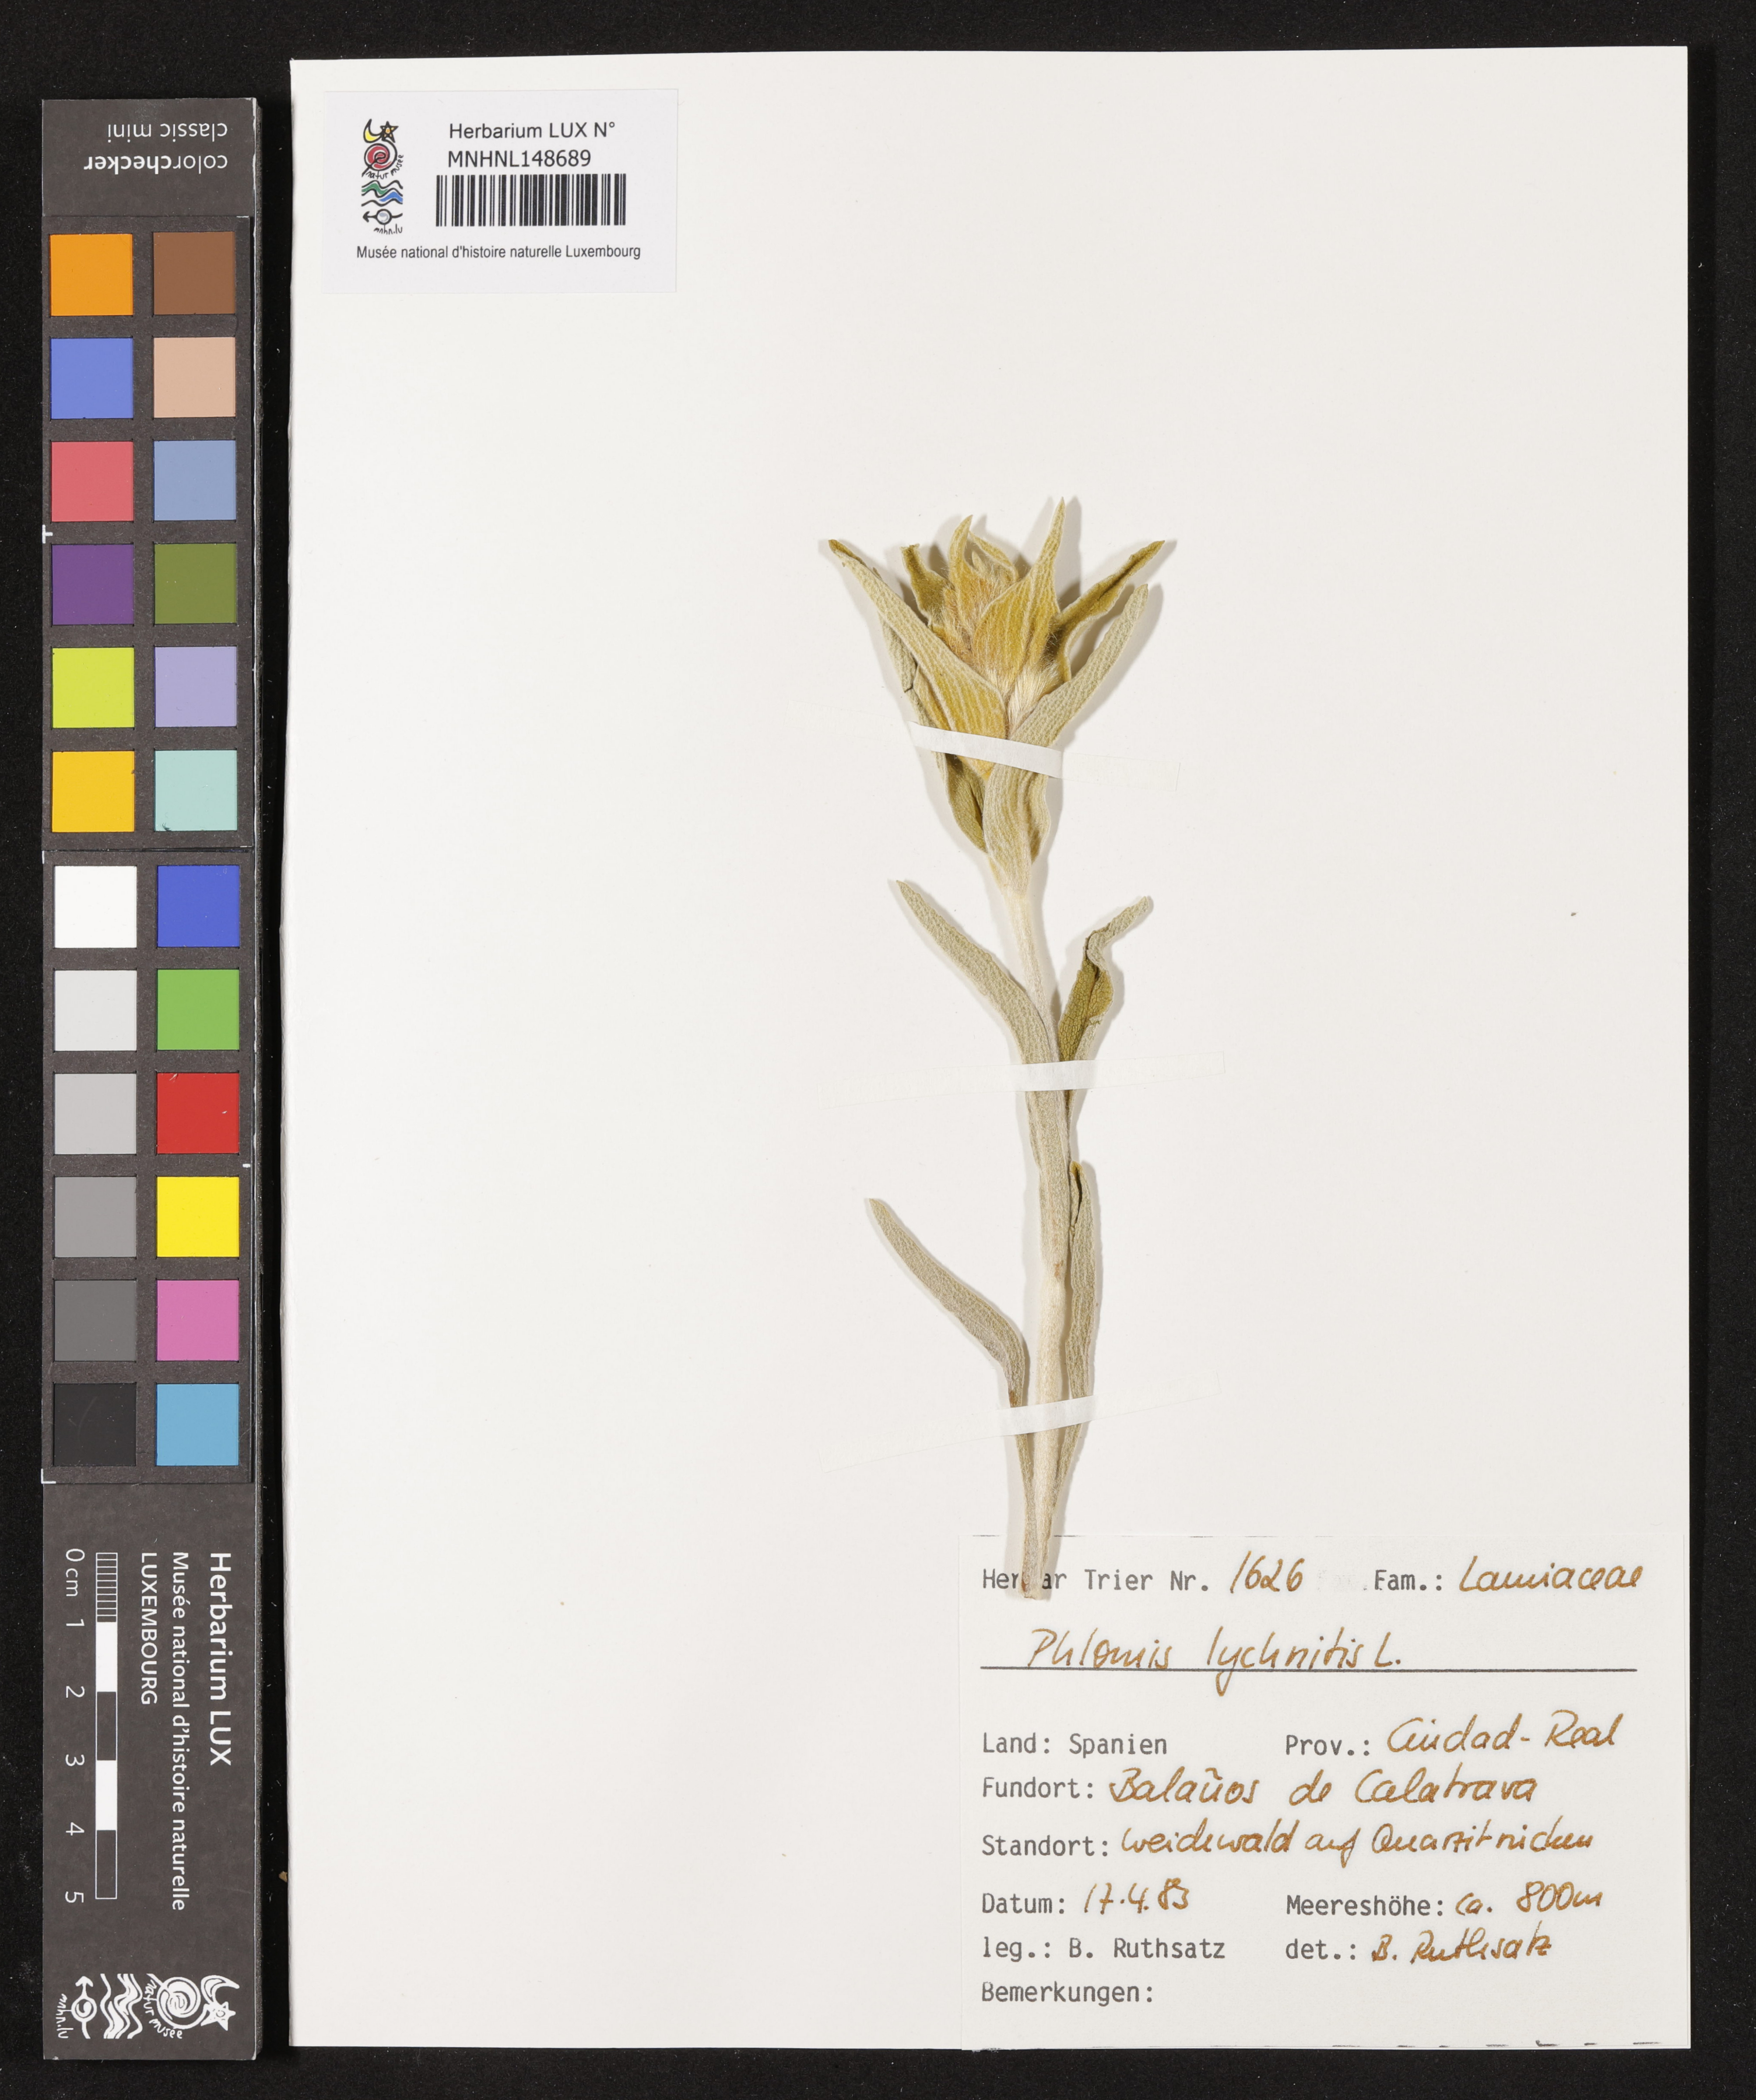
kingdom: Plantae
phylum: Tracheophyta
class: Magnoliopsida
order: Lamiales
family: Lamiaceae
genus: Phlomis
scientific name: Phlomis lychnitis
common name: Lampwickplant
